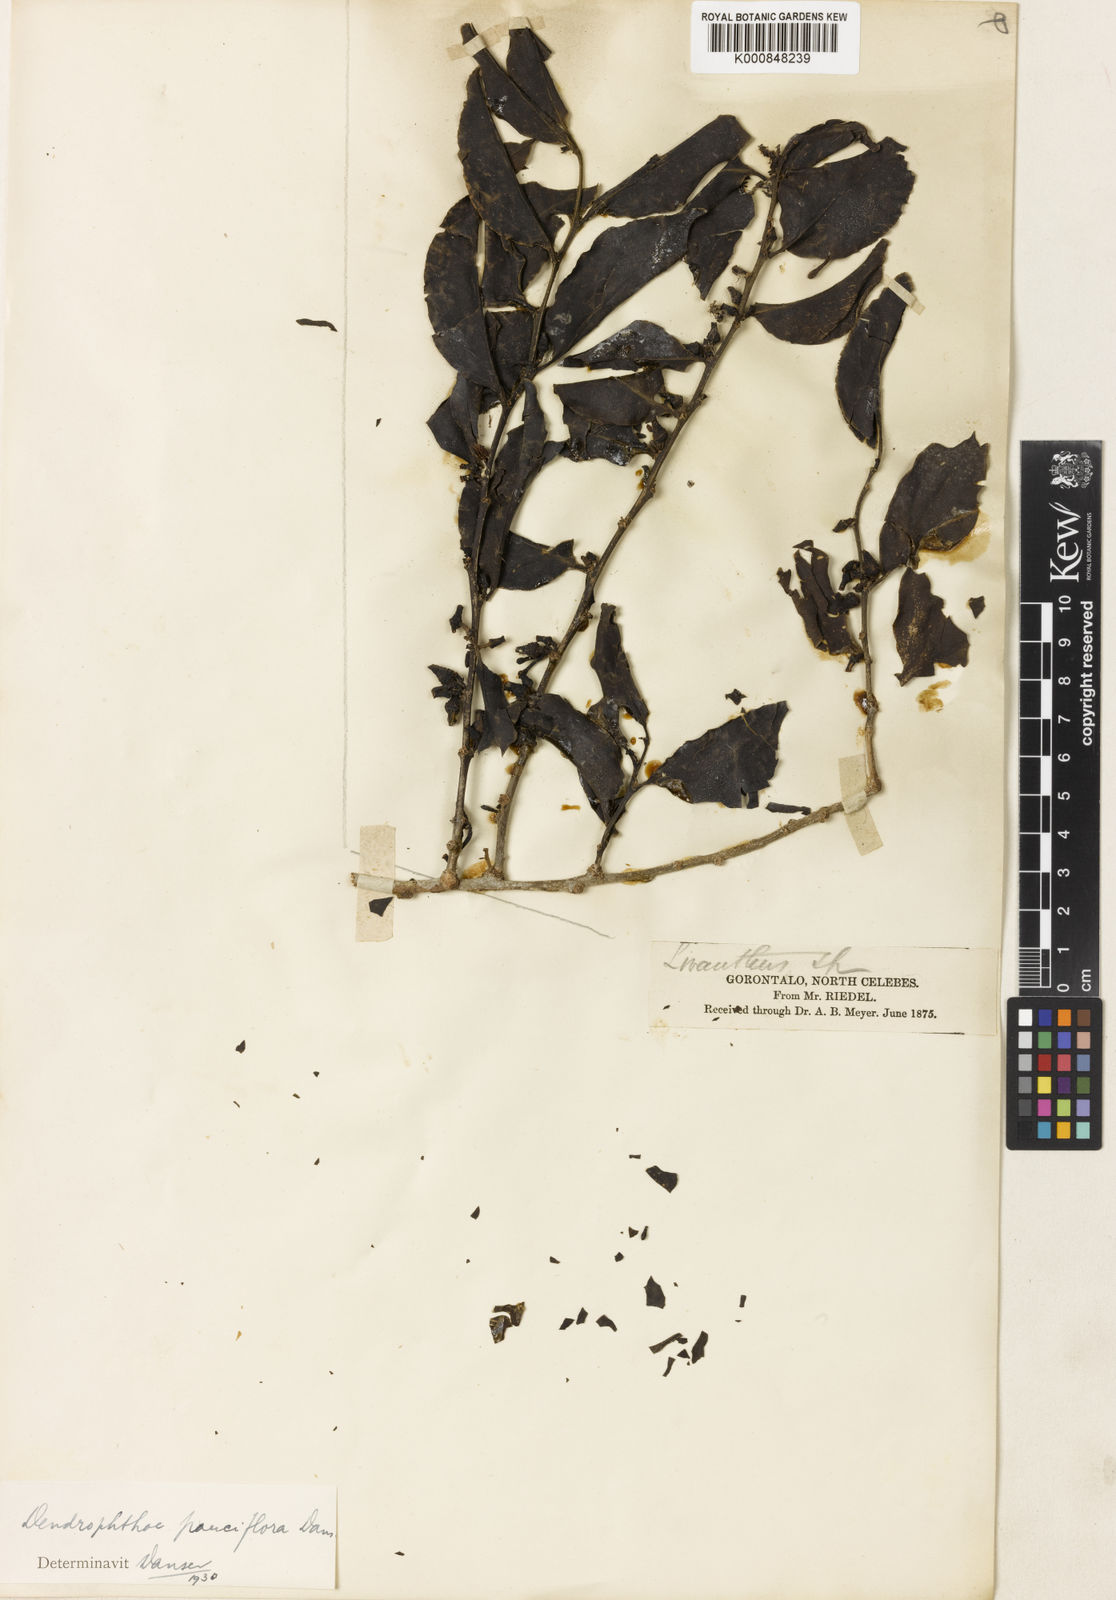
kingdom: Plantae
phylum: Tracheophyta
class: Magnoliopsida
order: Santalales
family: Loranthaceae
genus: Dendrophthoe
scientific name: Dendrophthoe pauciflora
